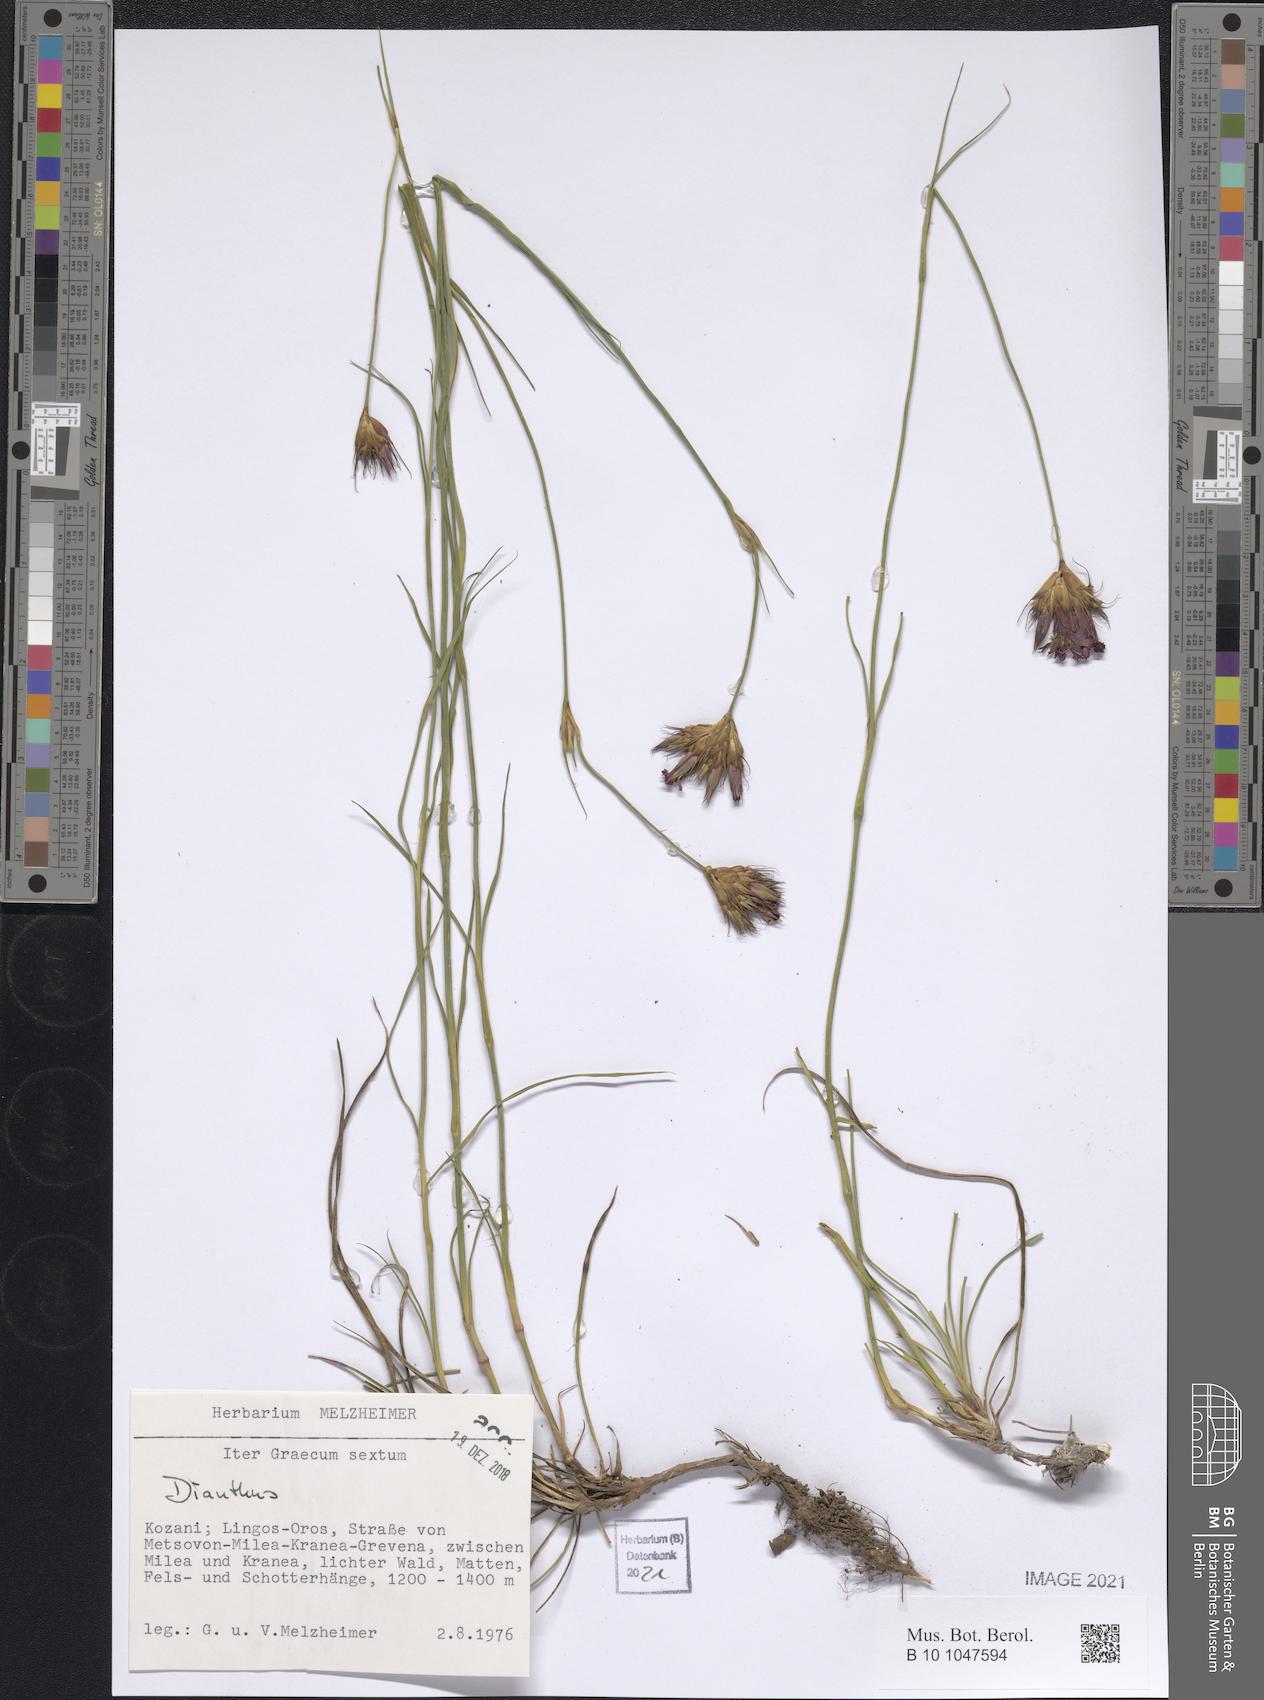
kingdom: Plantae
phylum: Tracheophyta
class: Magnoliopsida
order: Caryophyllales
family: Caryophyllaceae
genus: Dianthus
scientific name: Dianthus
